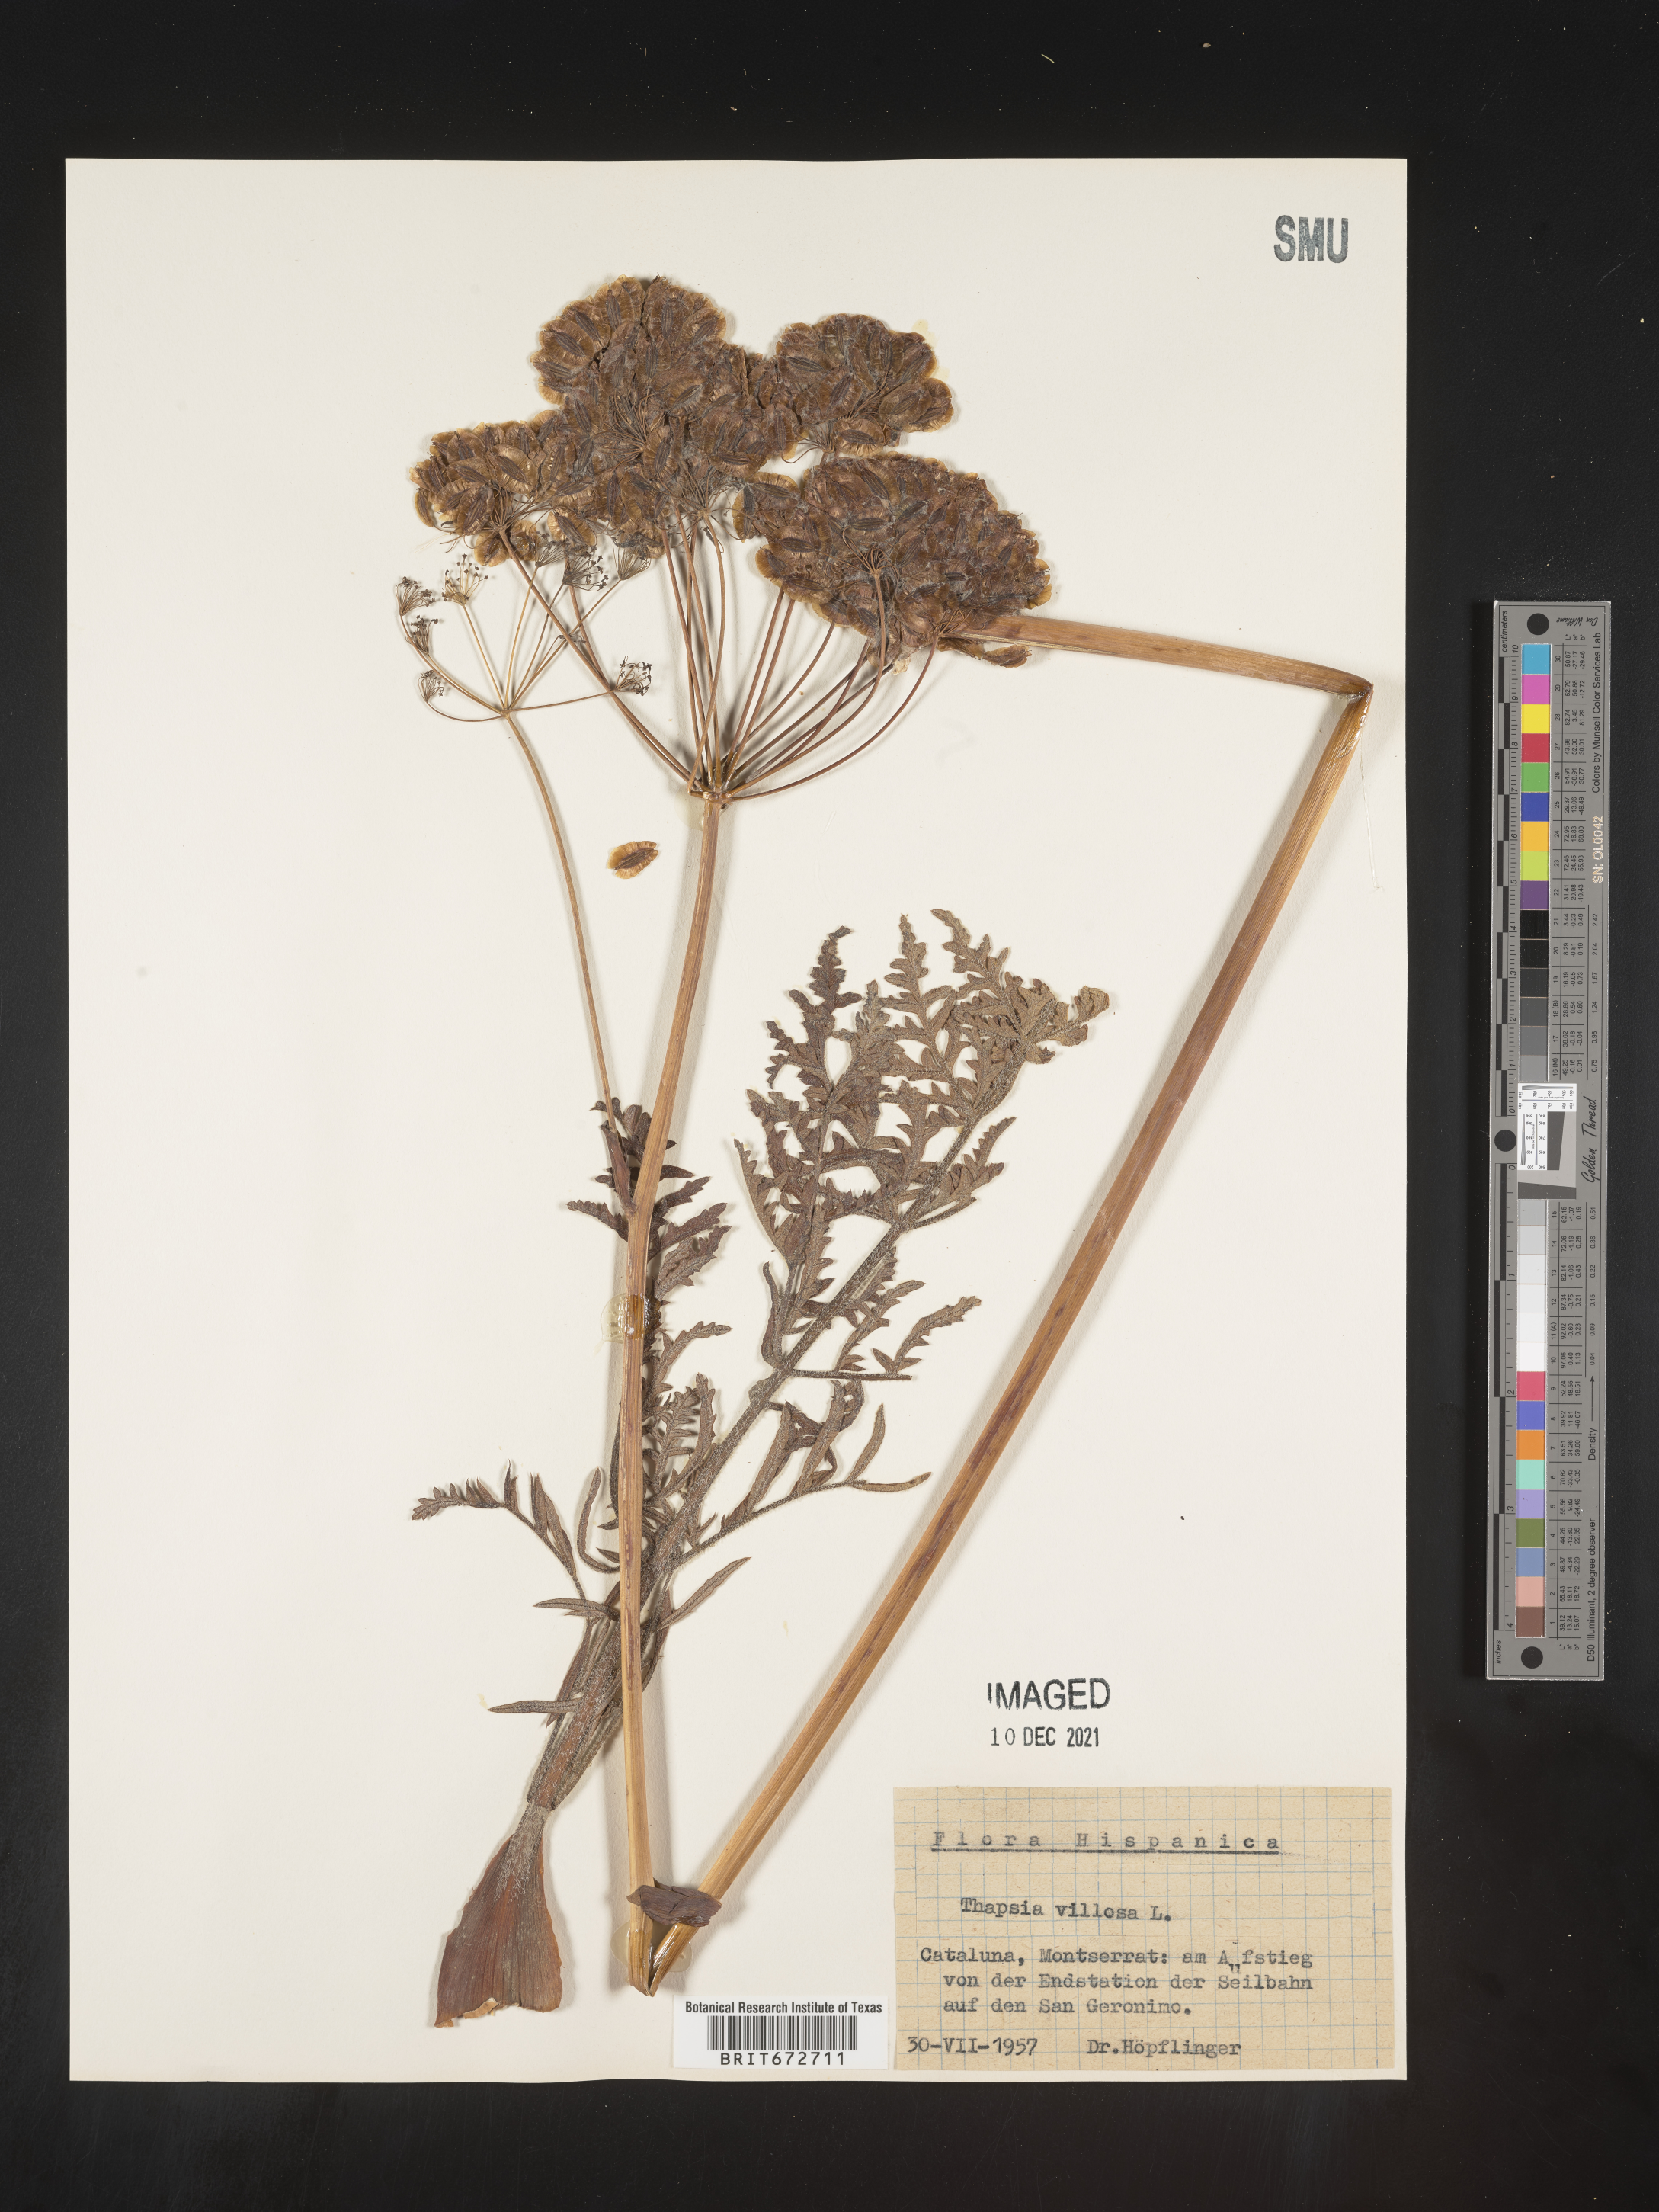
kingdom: Plantae
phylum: Tracheophyta
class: Magnoliopsida
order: Apiales
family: Apiaceae
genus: Thapsia
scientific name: Thapsia
